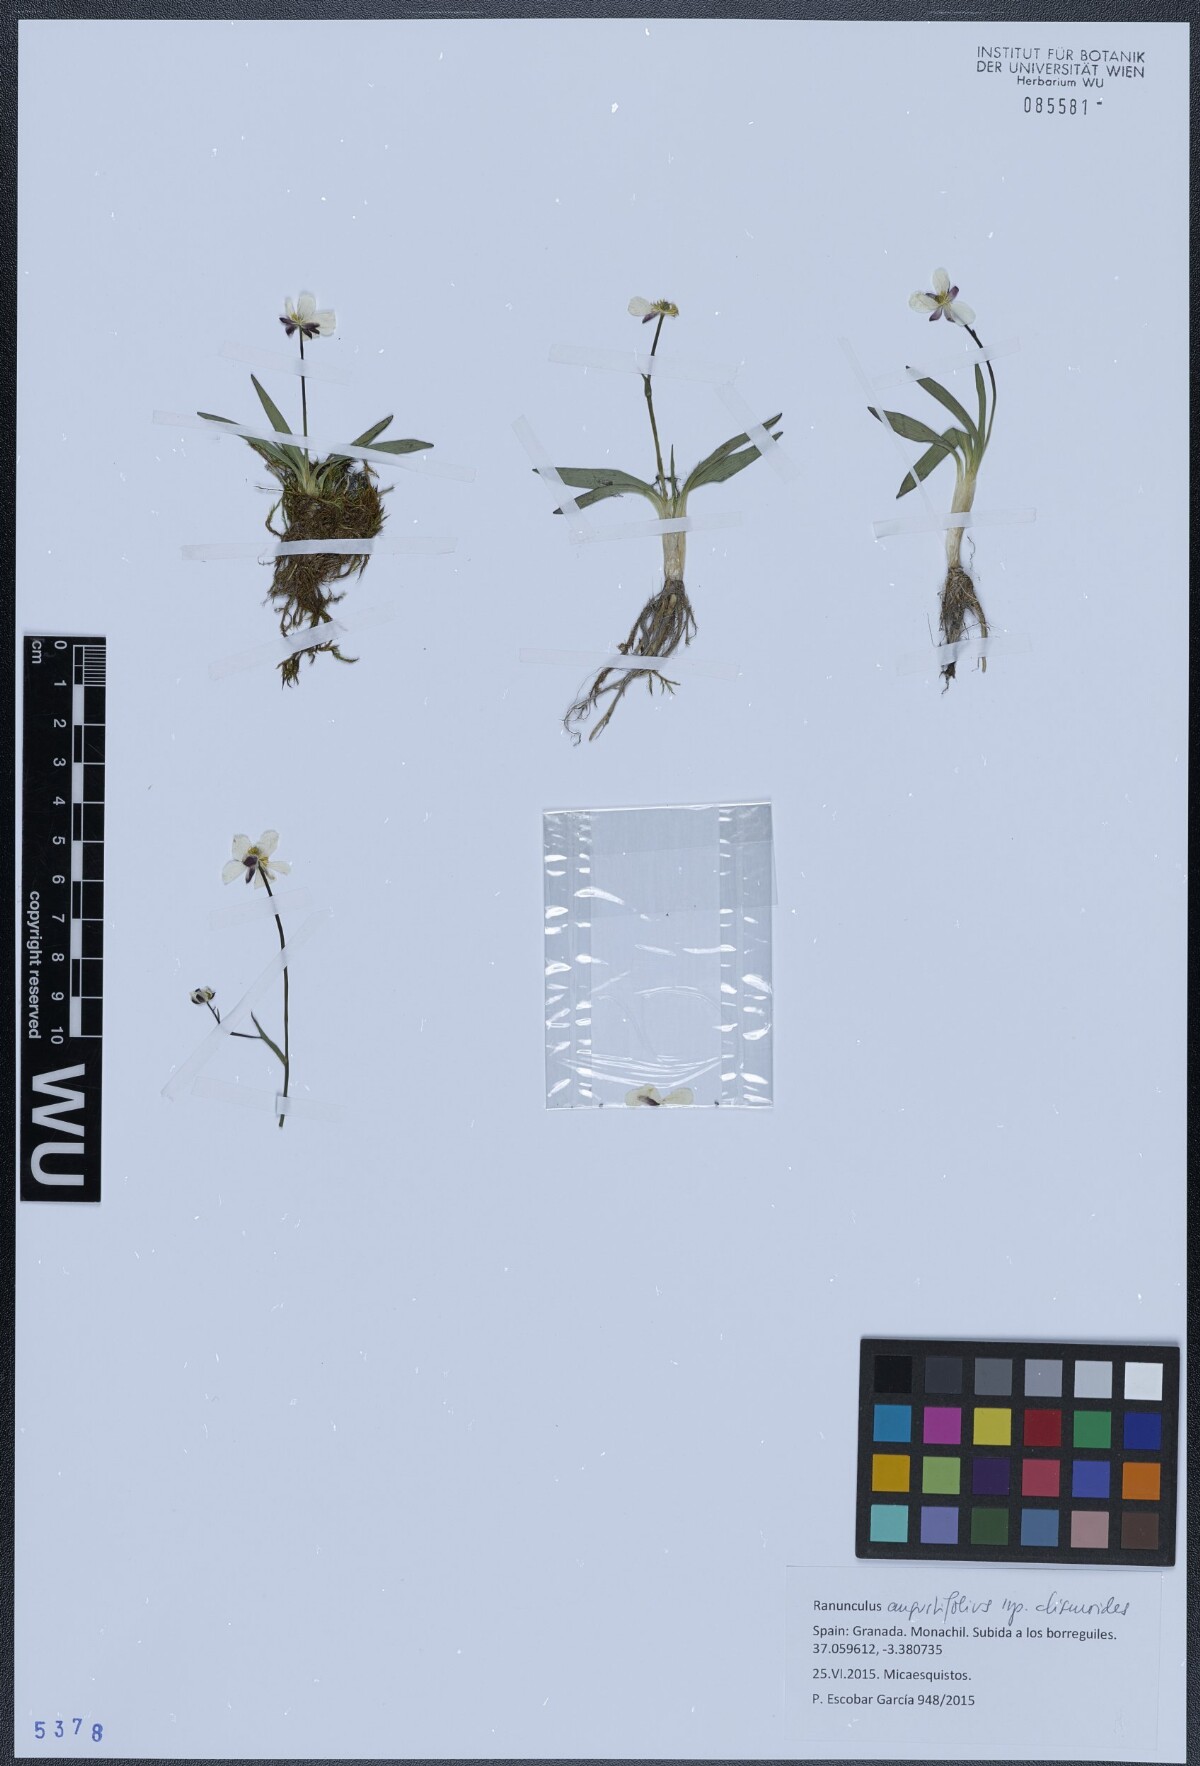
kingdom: Plantae
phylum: Tracheophyta
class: Magnoliopsida
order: Ranunculales
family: Ranunculaceae
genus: Ranunculus
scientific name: Ranunculus angustifolius
